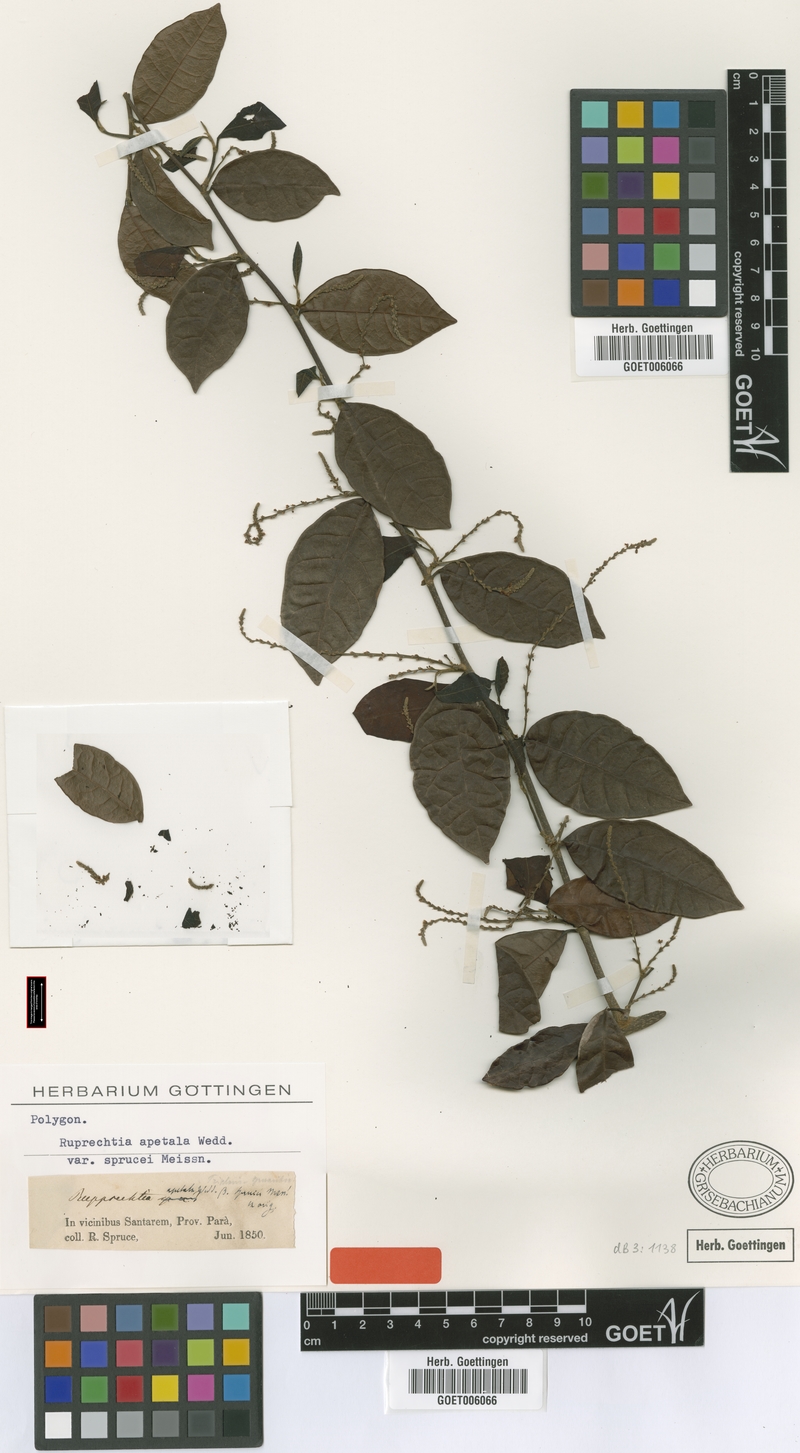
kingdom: Plantae
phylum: Tracheophyta
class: Magnoliopsida
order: Caryophyllales
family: Polygonaceae
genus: Ruprechtia
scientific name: Ruprechtia apetala
